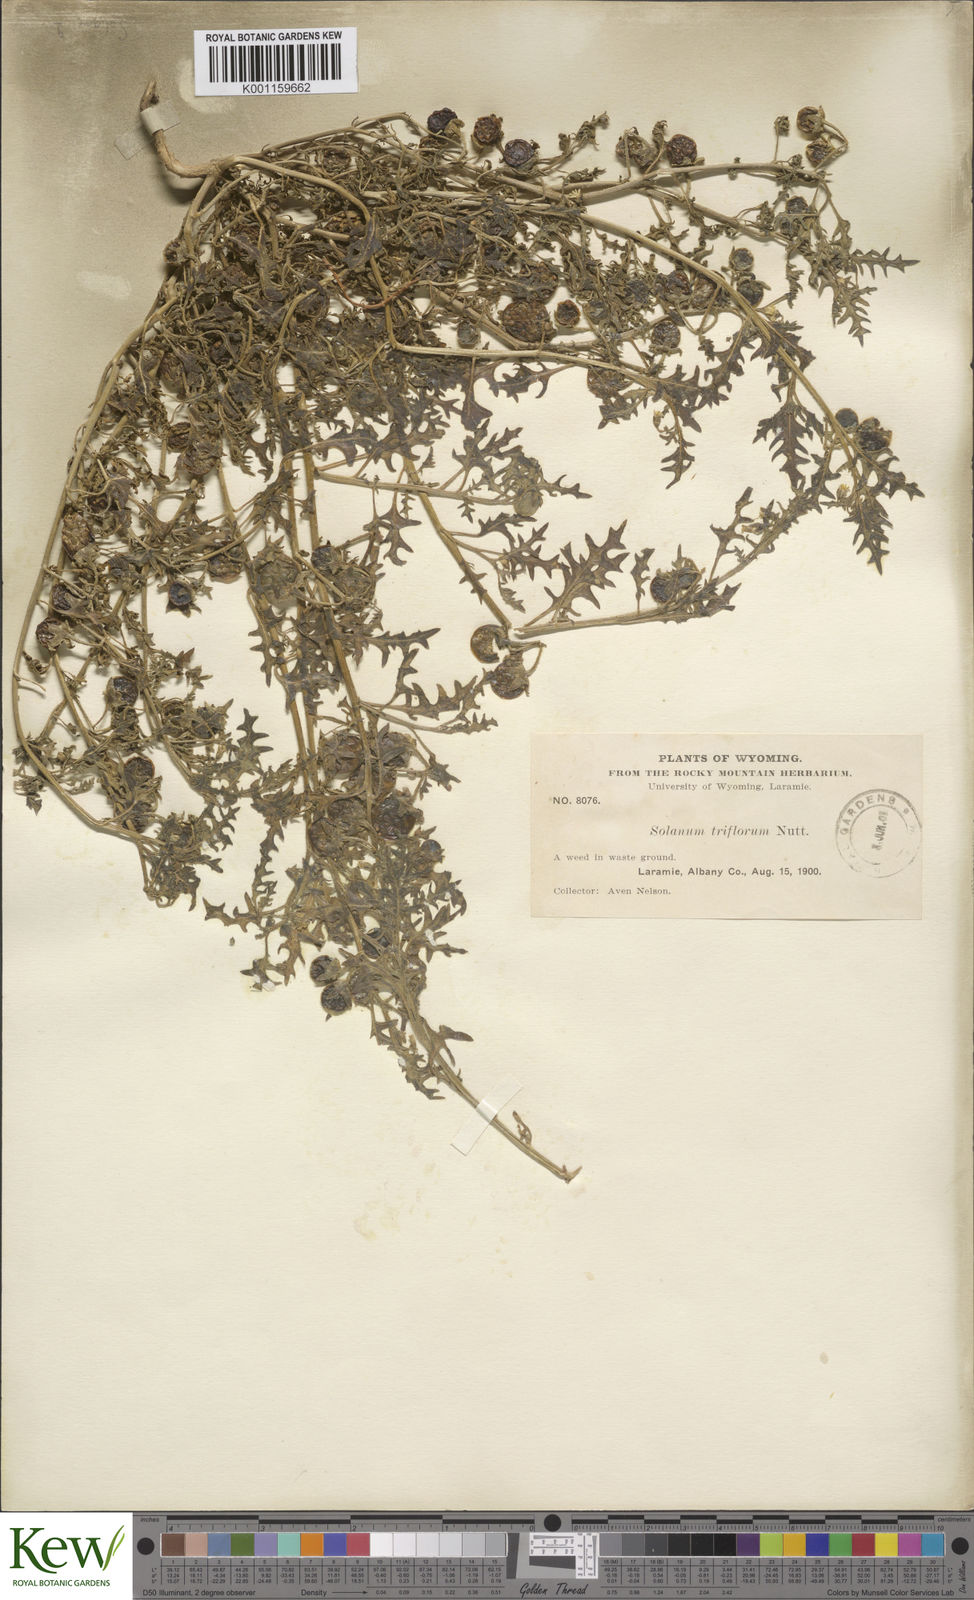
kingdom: Plantae
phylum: Tracheophyta
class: Magnoliopsida
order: Solanales
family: Solanaceae
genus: Solanum
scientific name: Solanum triflorum
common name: Small nightshade
